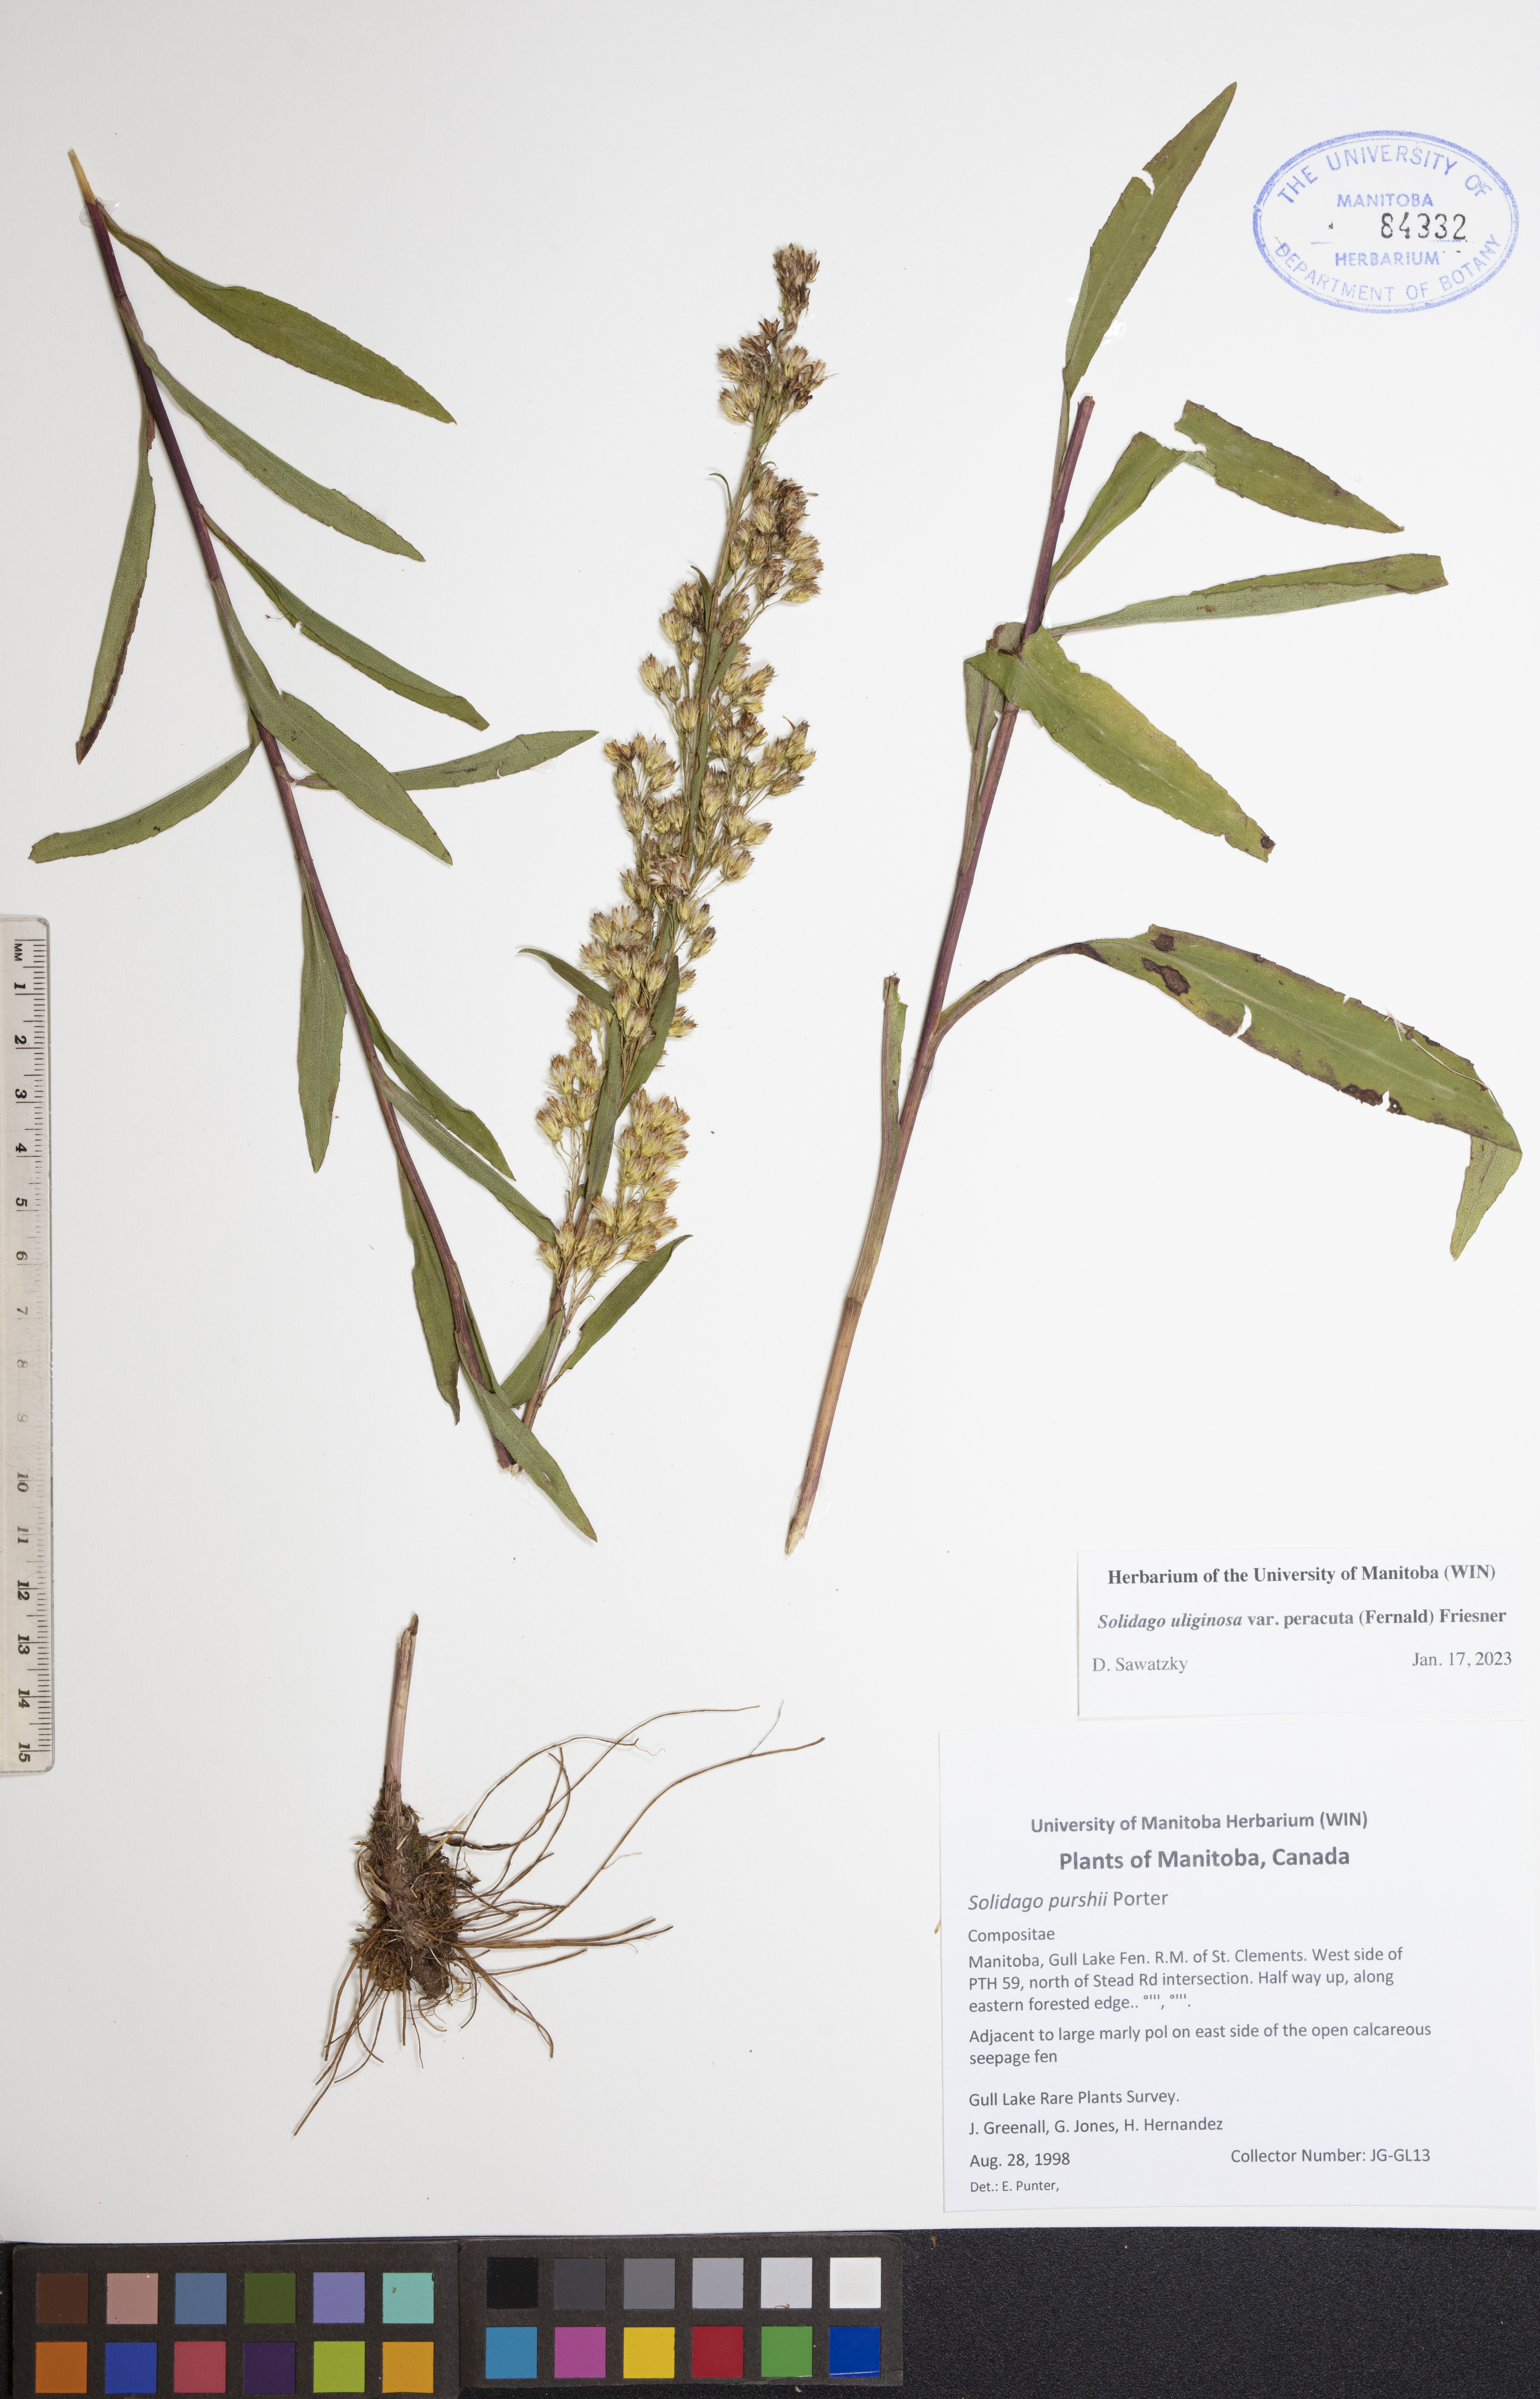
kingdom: Plantae
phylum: Tracheophyta
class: Magnoliopsida
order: Asterales
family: Asteraceae
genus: Solidago
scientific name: Solidago uliginosa
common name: Bog goldenrod
